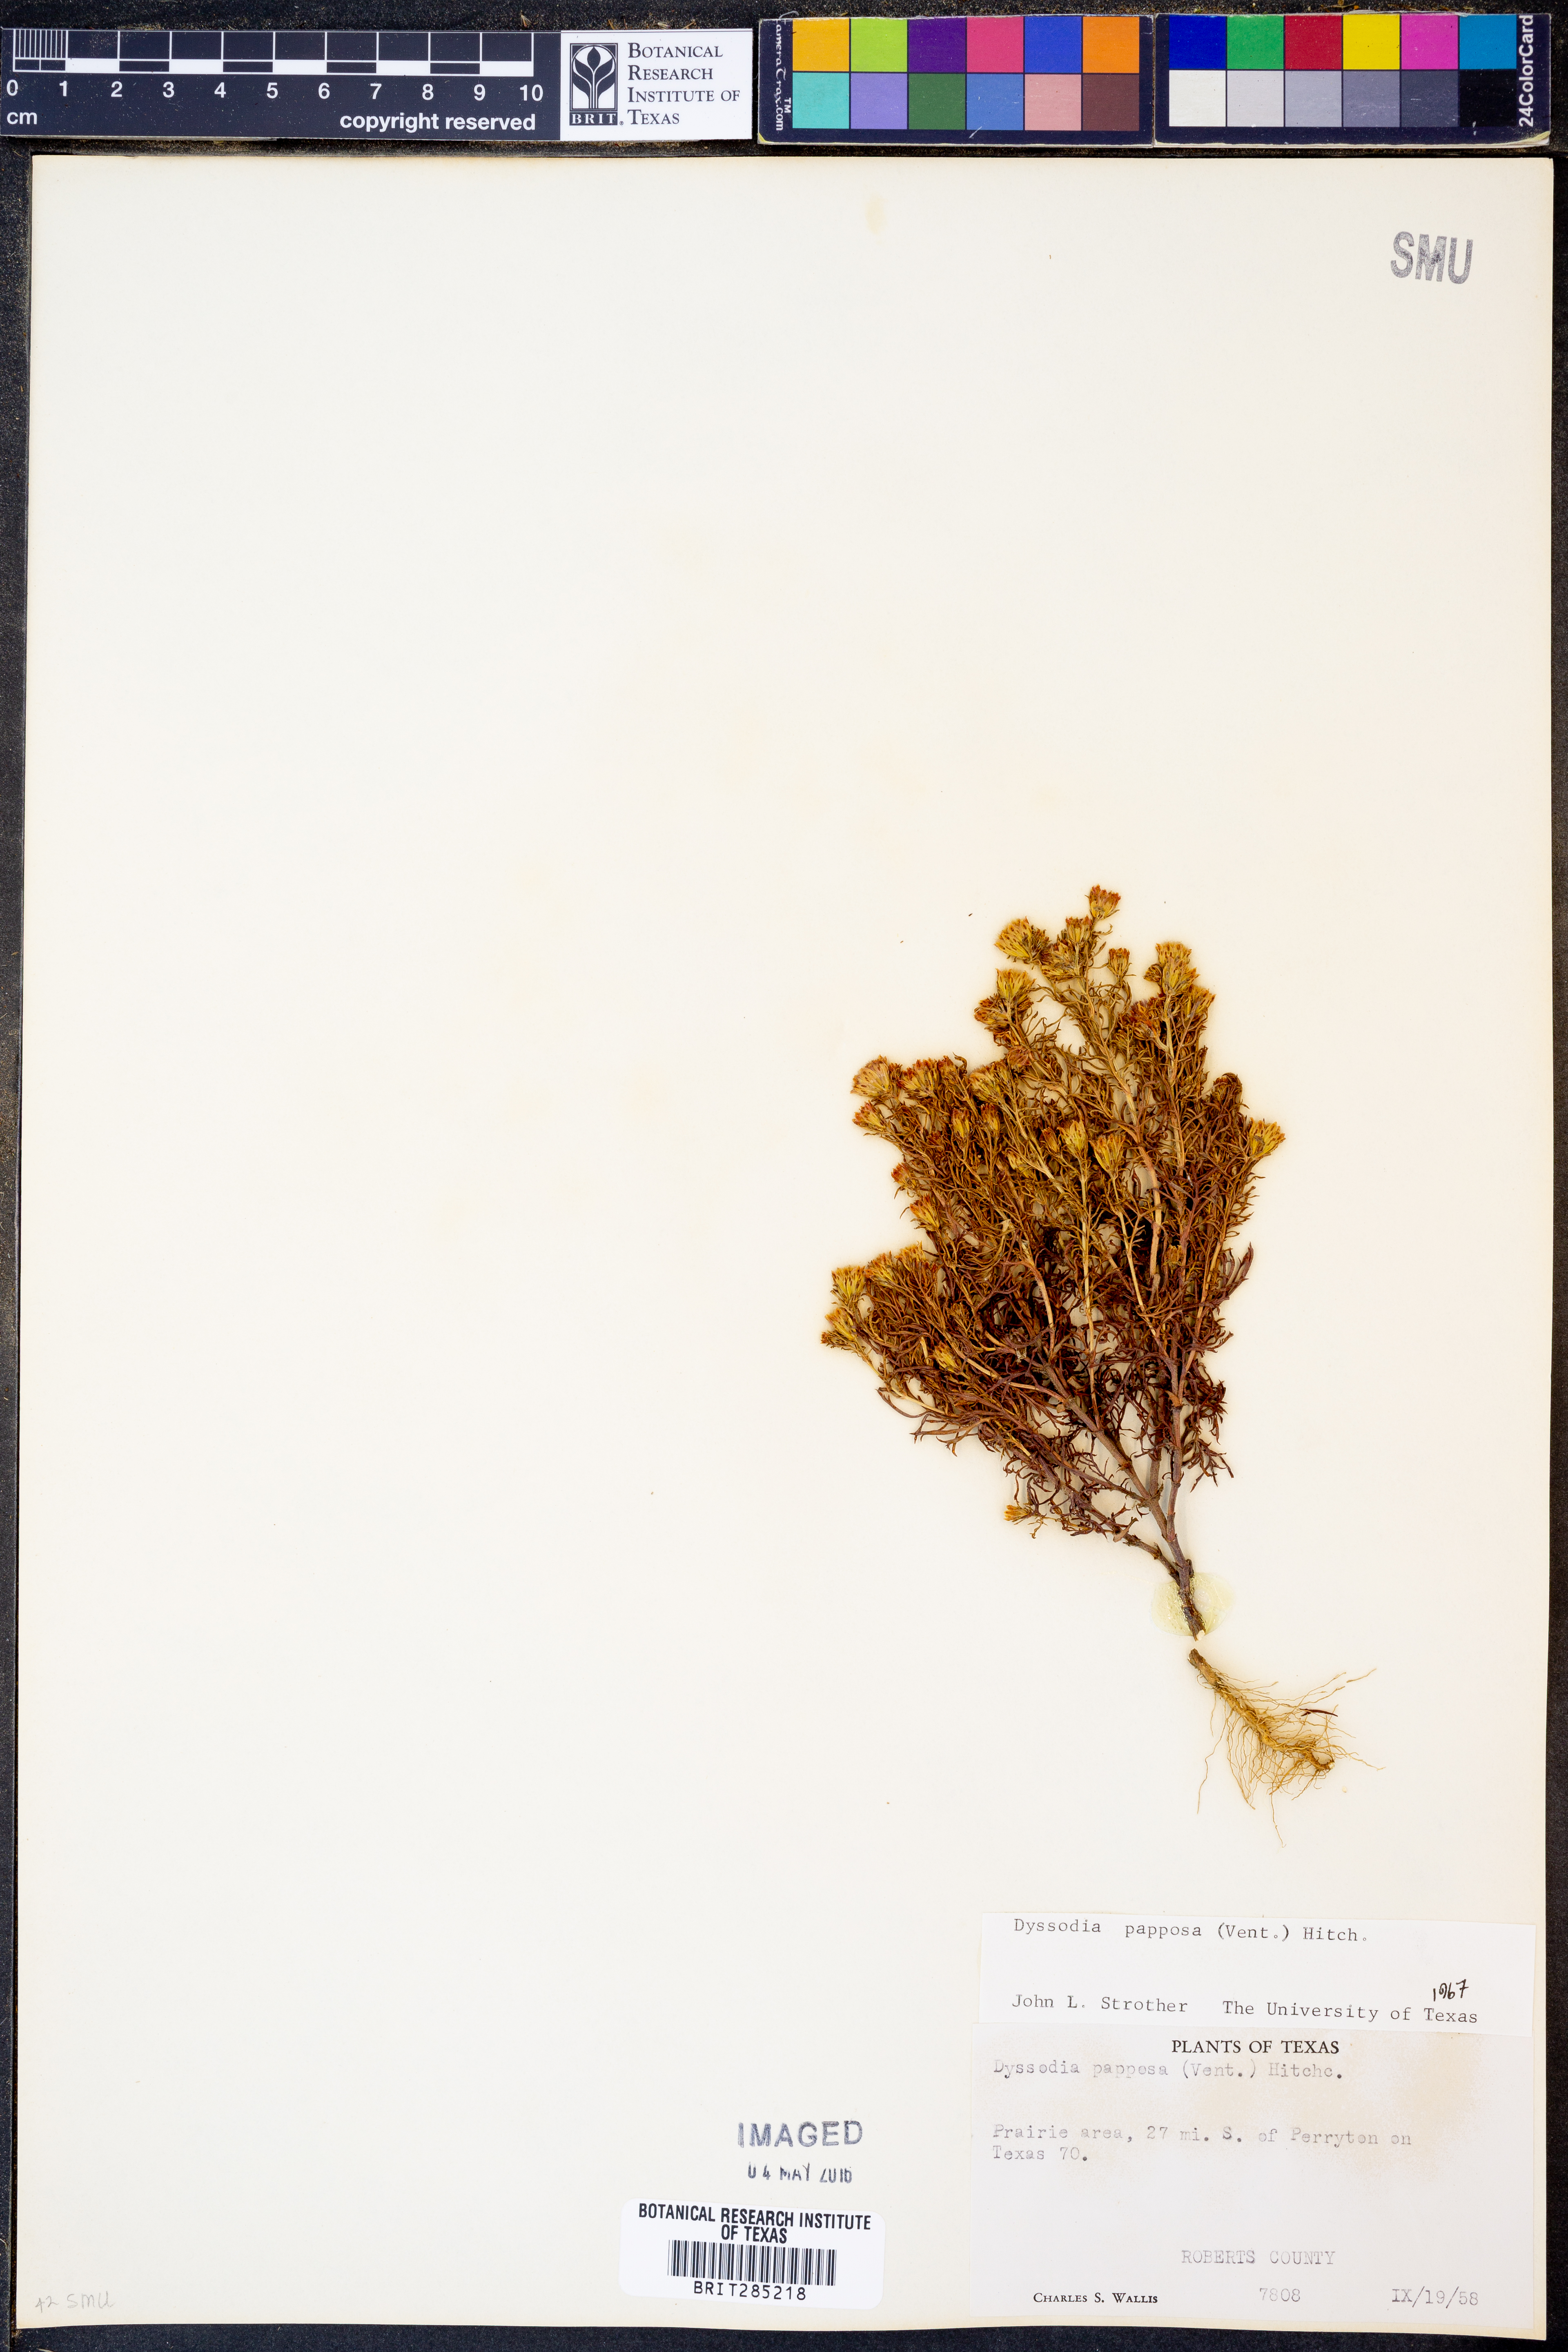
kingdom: Plantae
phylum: Tracheophyta
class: Magnoliopsida
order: Asterales
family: Asteraceae
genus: Dyssodia
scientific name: Dyssodia papposa
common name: Dogweed
